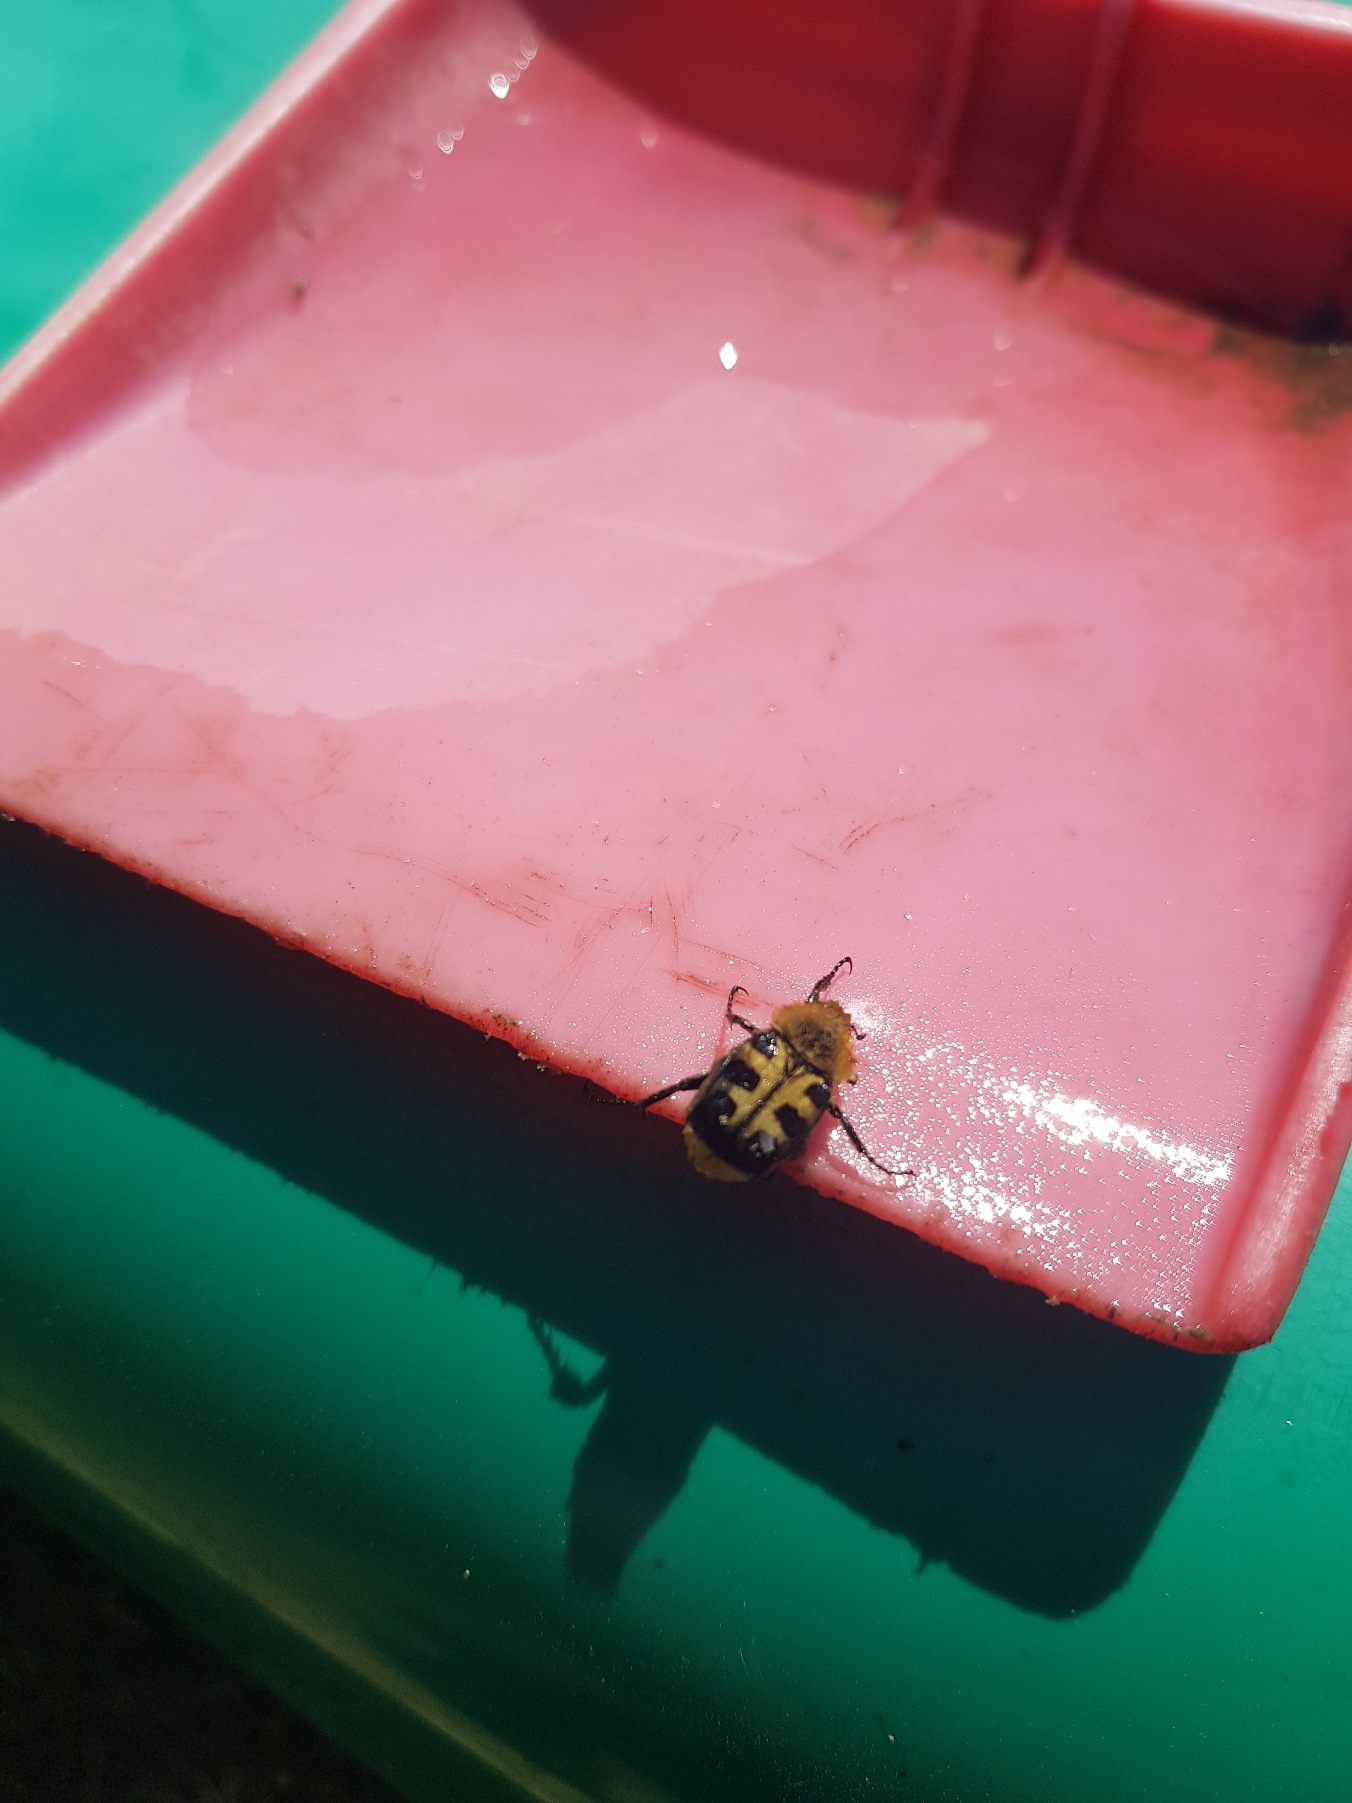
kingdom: Animalia
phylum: Arthropoda
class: Insecta
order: Coleoptera
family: Scarabaeidae
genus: Trichius
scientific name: Trichius gallicus
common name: Lille humlebille
